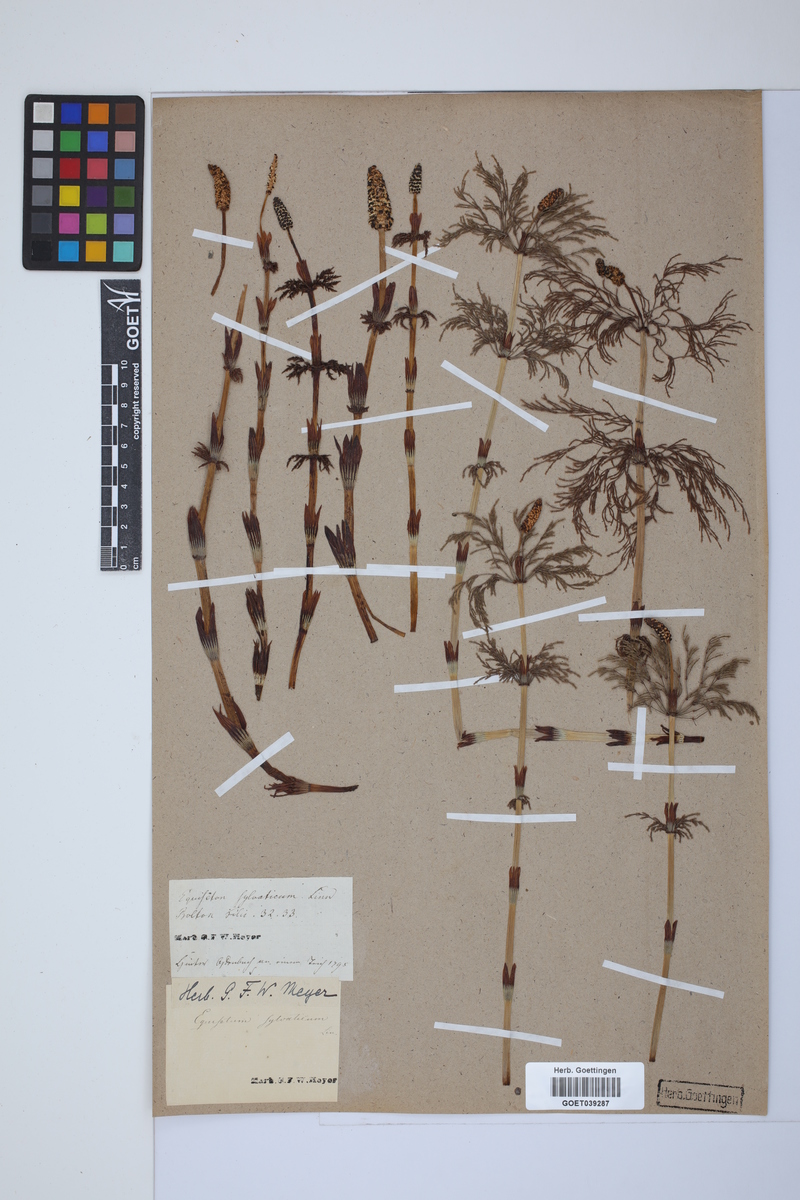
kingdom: Plantae
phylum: Tracheophyta
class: Polypodiopsida
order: Equisetales
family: Equisetaceae
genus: Equisetum
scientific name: Equisetum sylvaticum
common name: Wood horsetail
